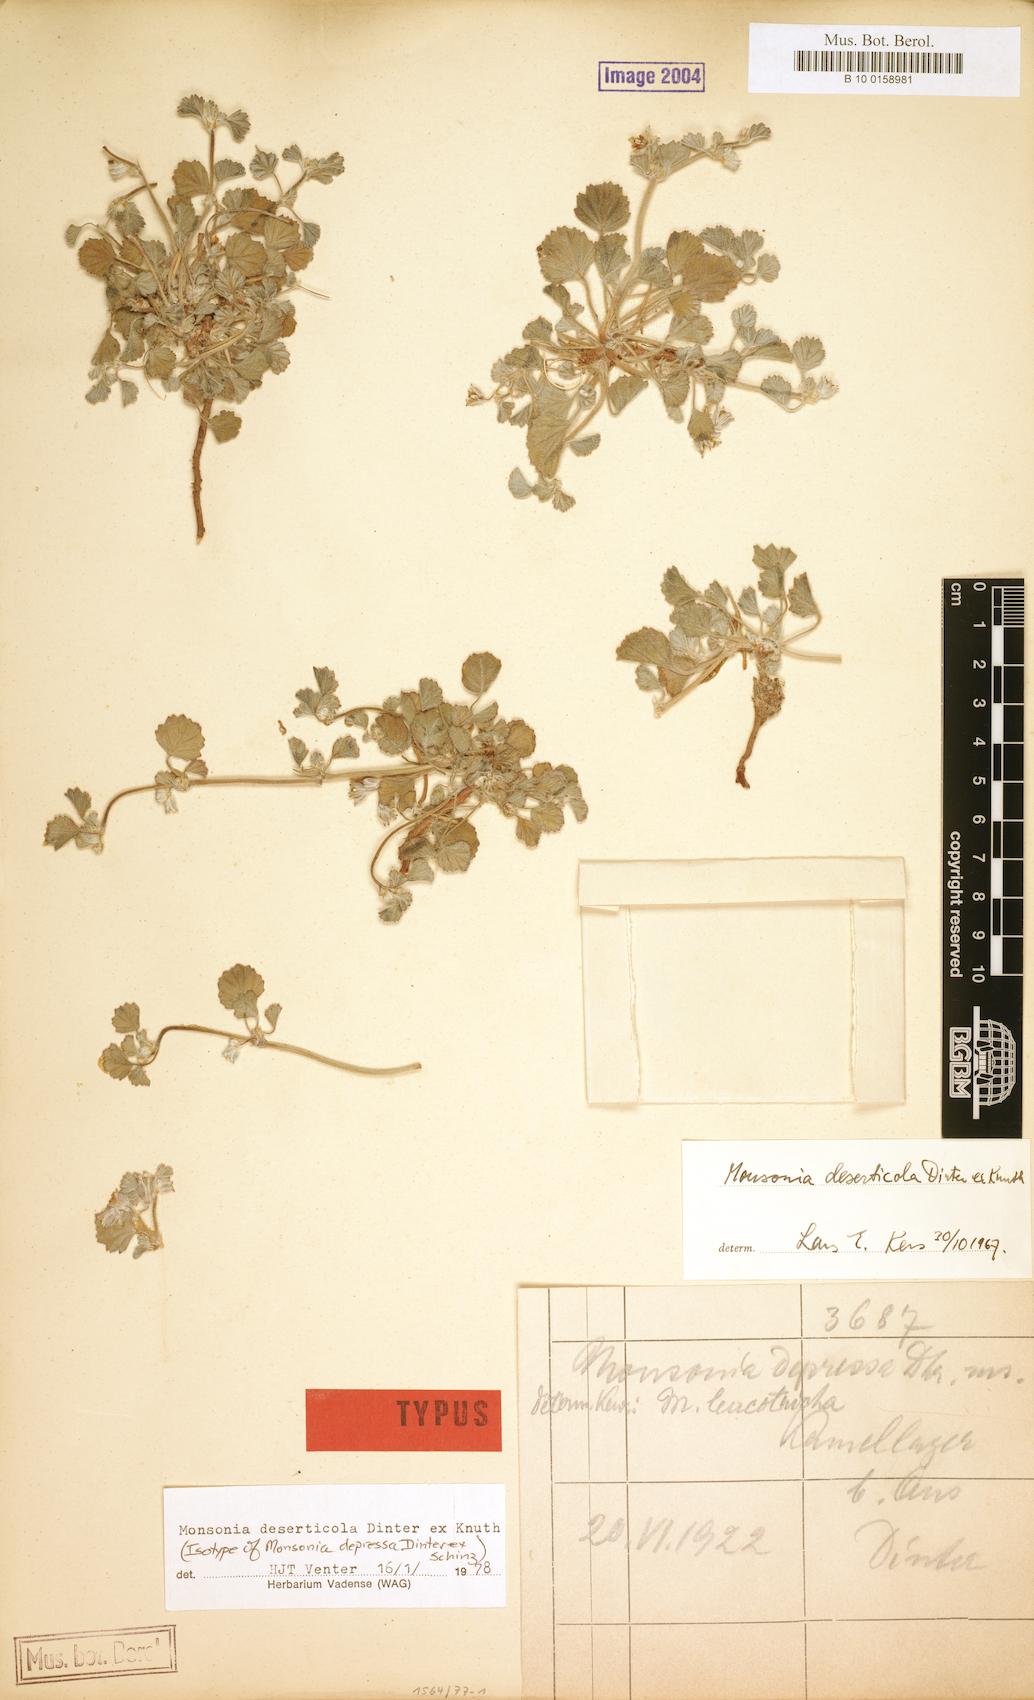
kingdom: Plantae
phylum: Tracheophyta
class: Magnoliopsida
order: Geraniales
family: Geraniaceae
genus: Monsonia
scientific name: Monsonia deserticola
